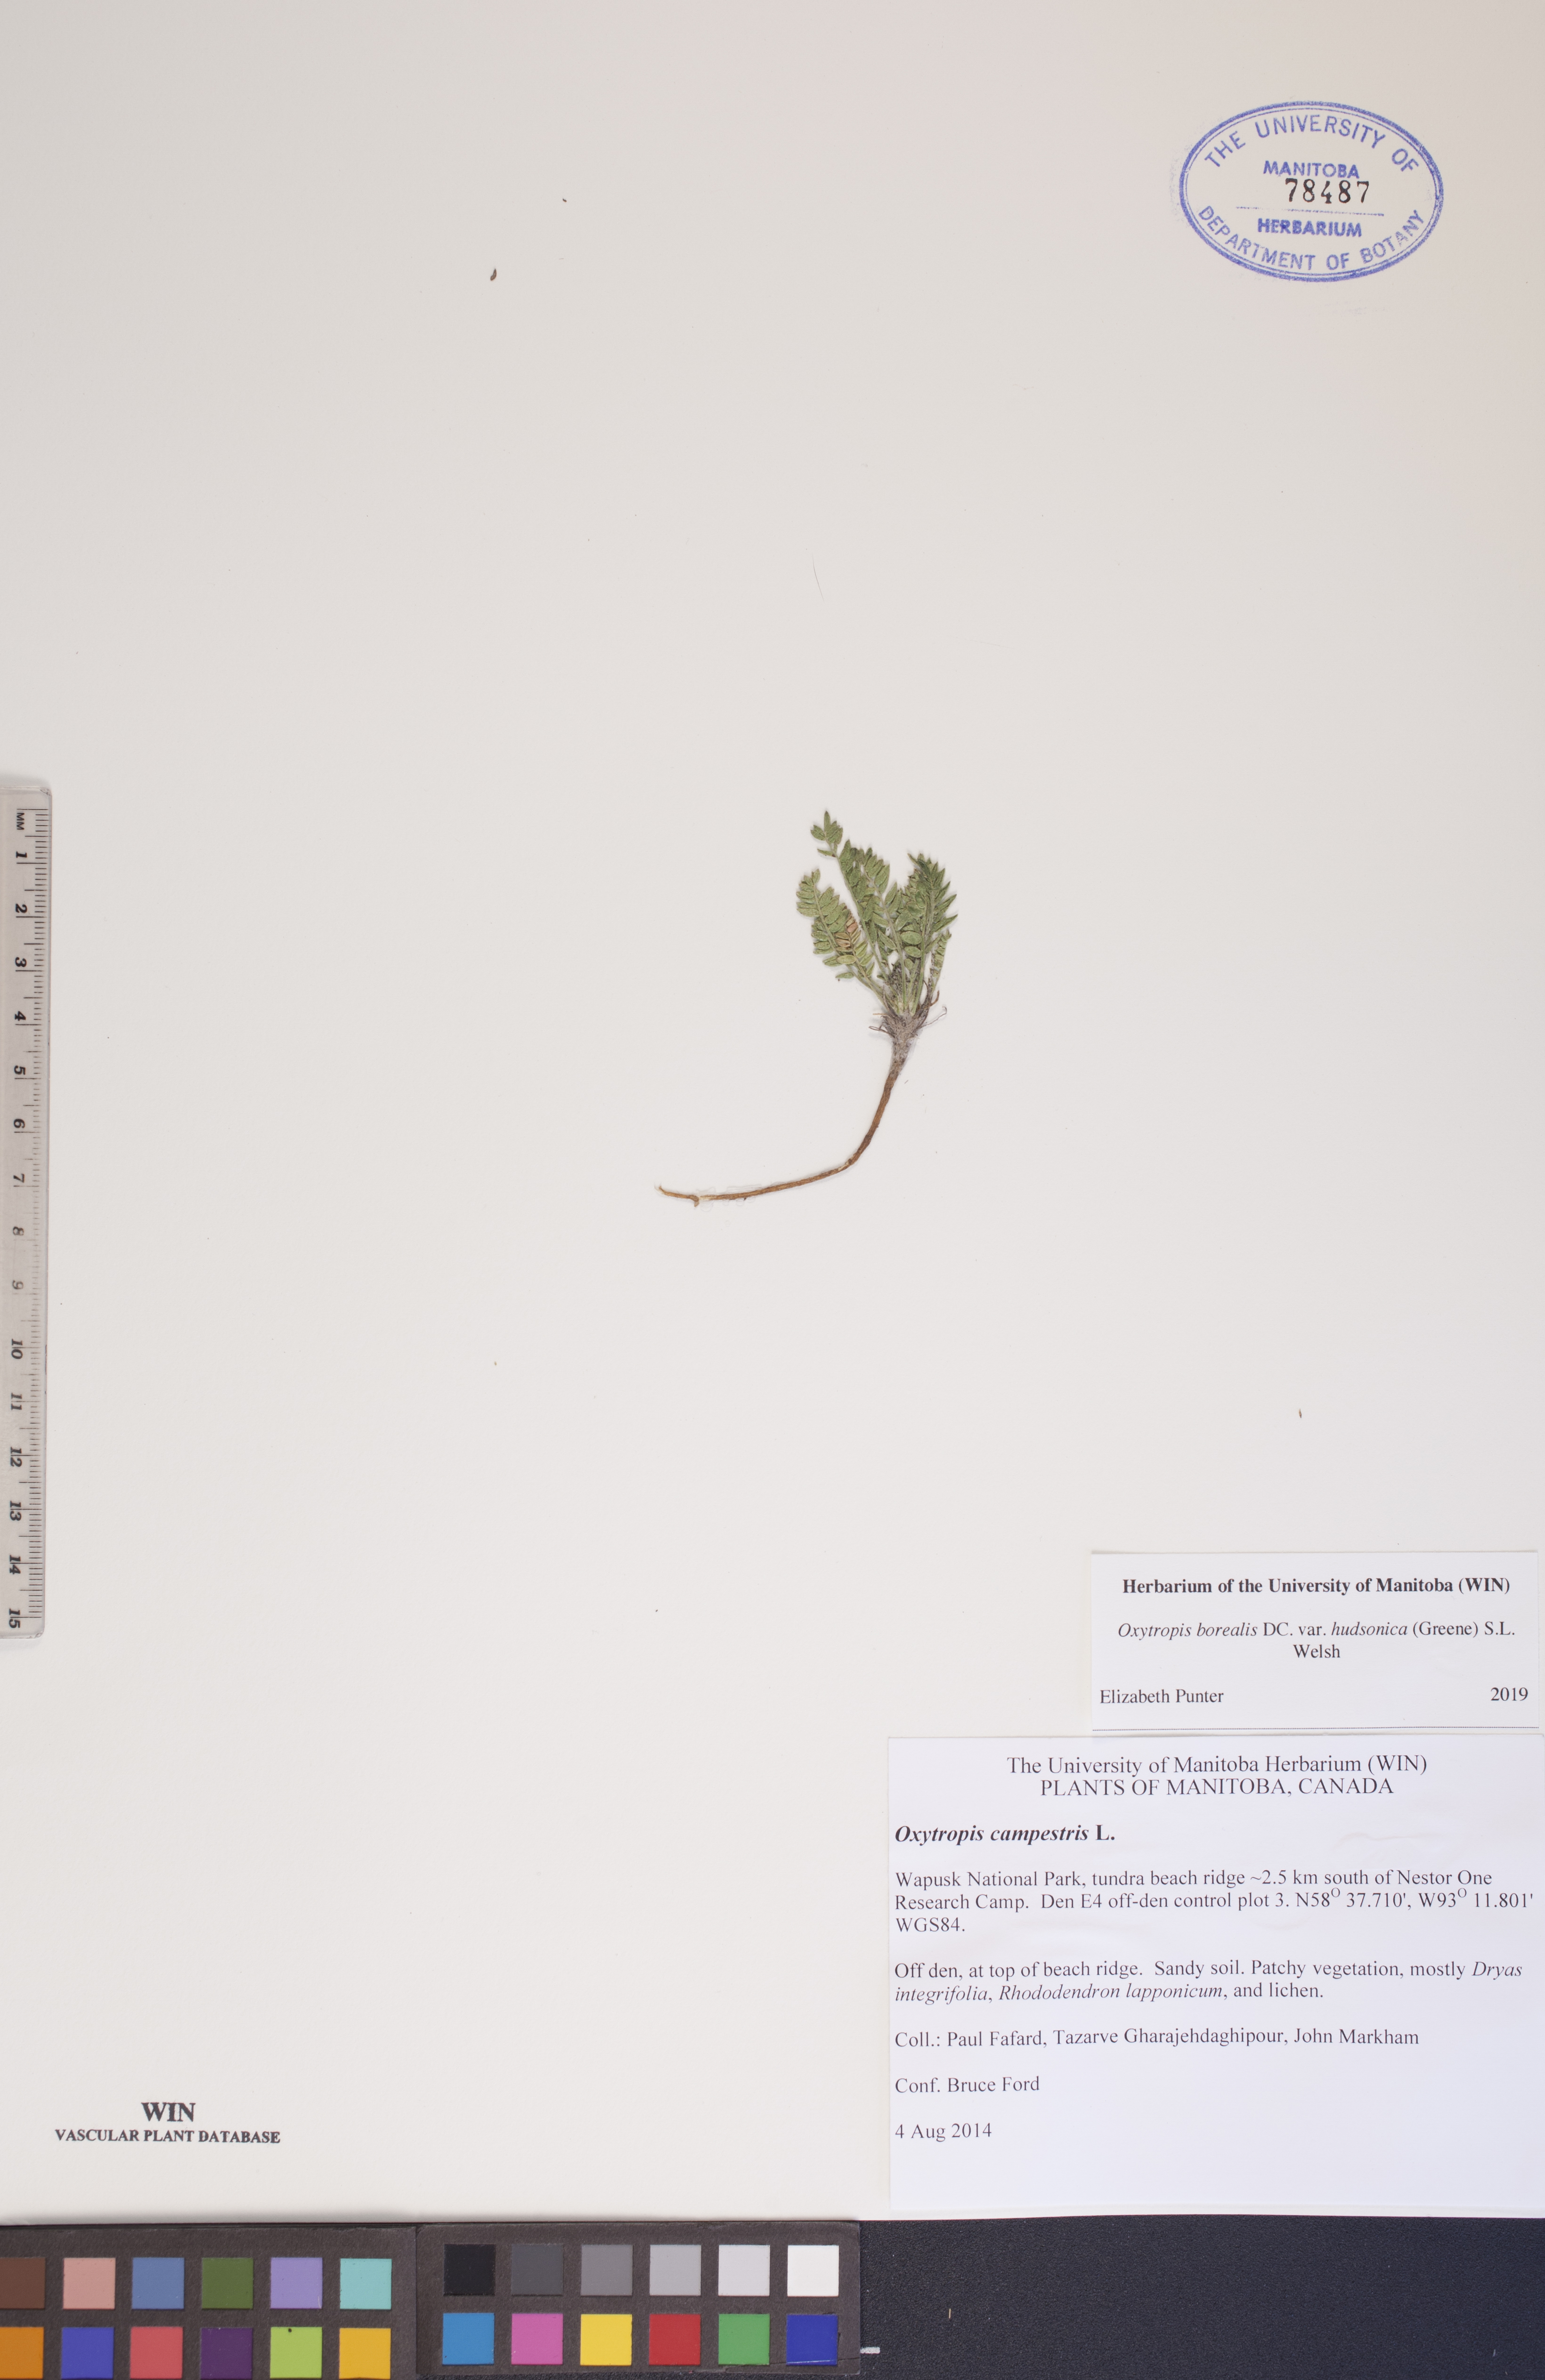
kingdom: Plantae
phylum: Tracheophyta
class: Magnoliopsida
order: Fabales
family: Fabaceae
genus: Oxytropis
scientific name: Oxytropis hudsonica
